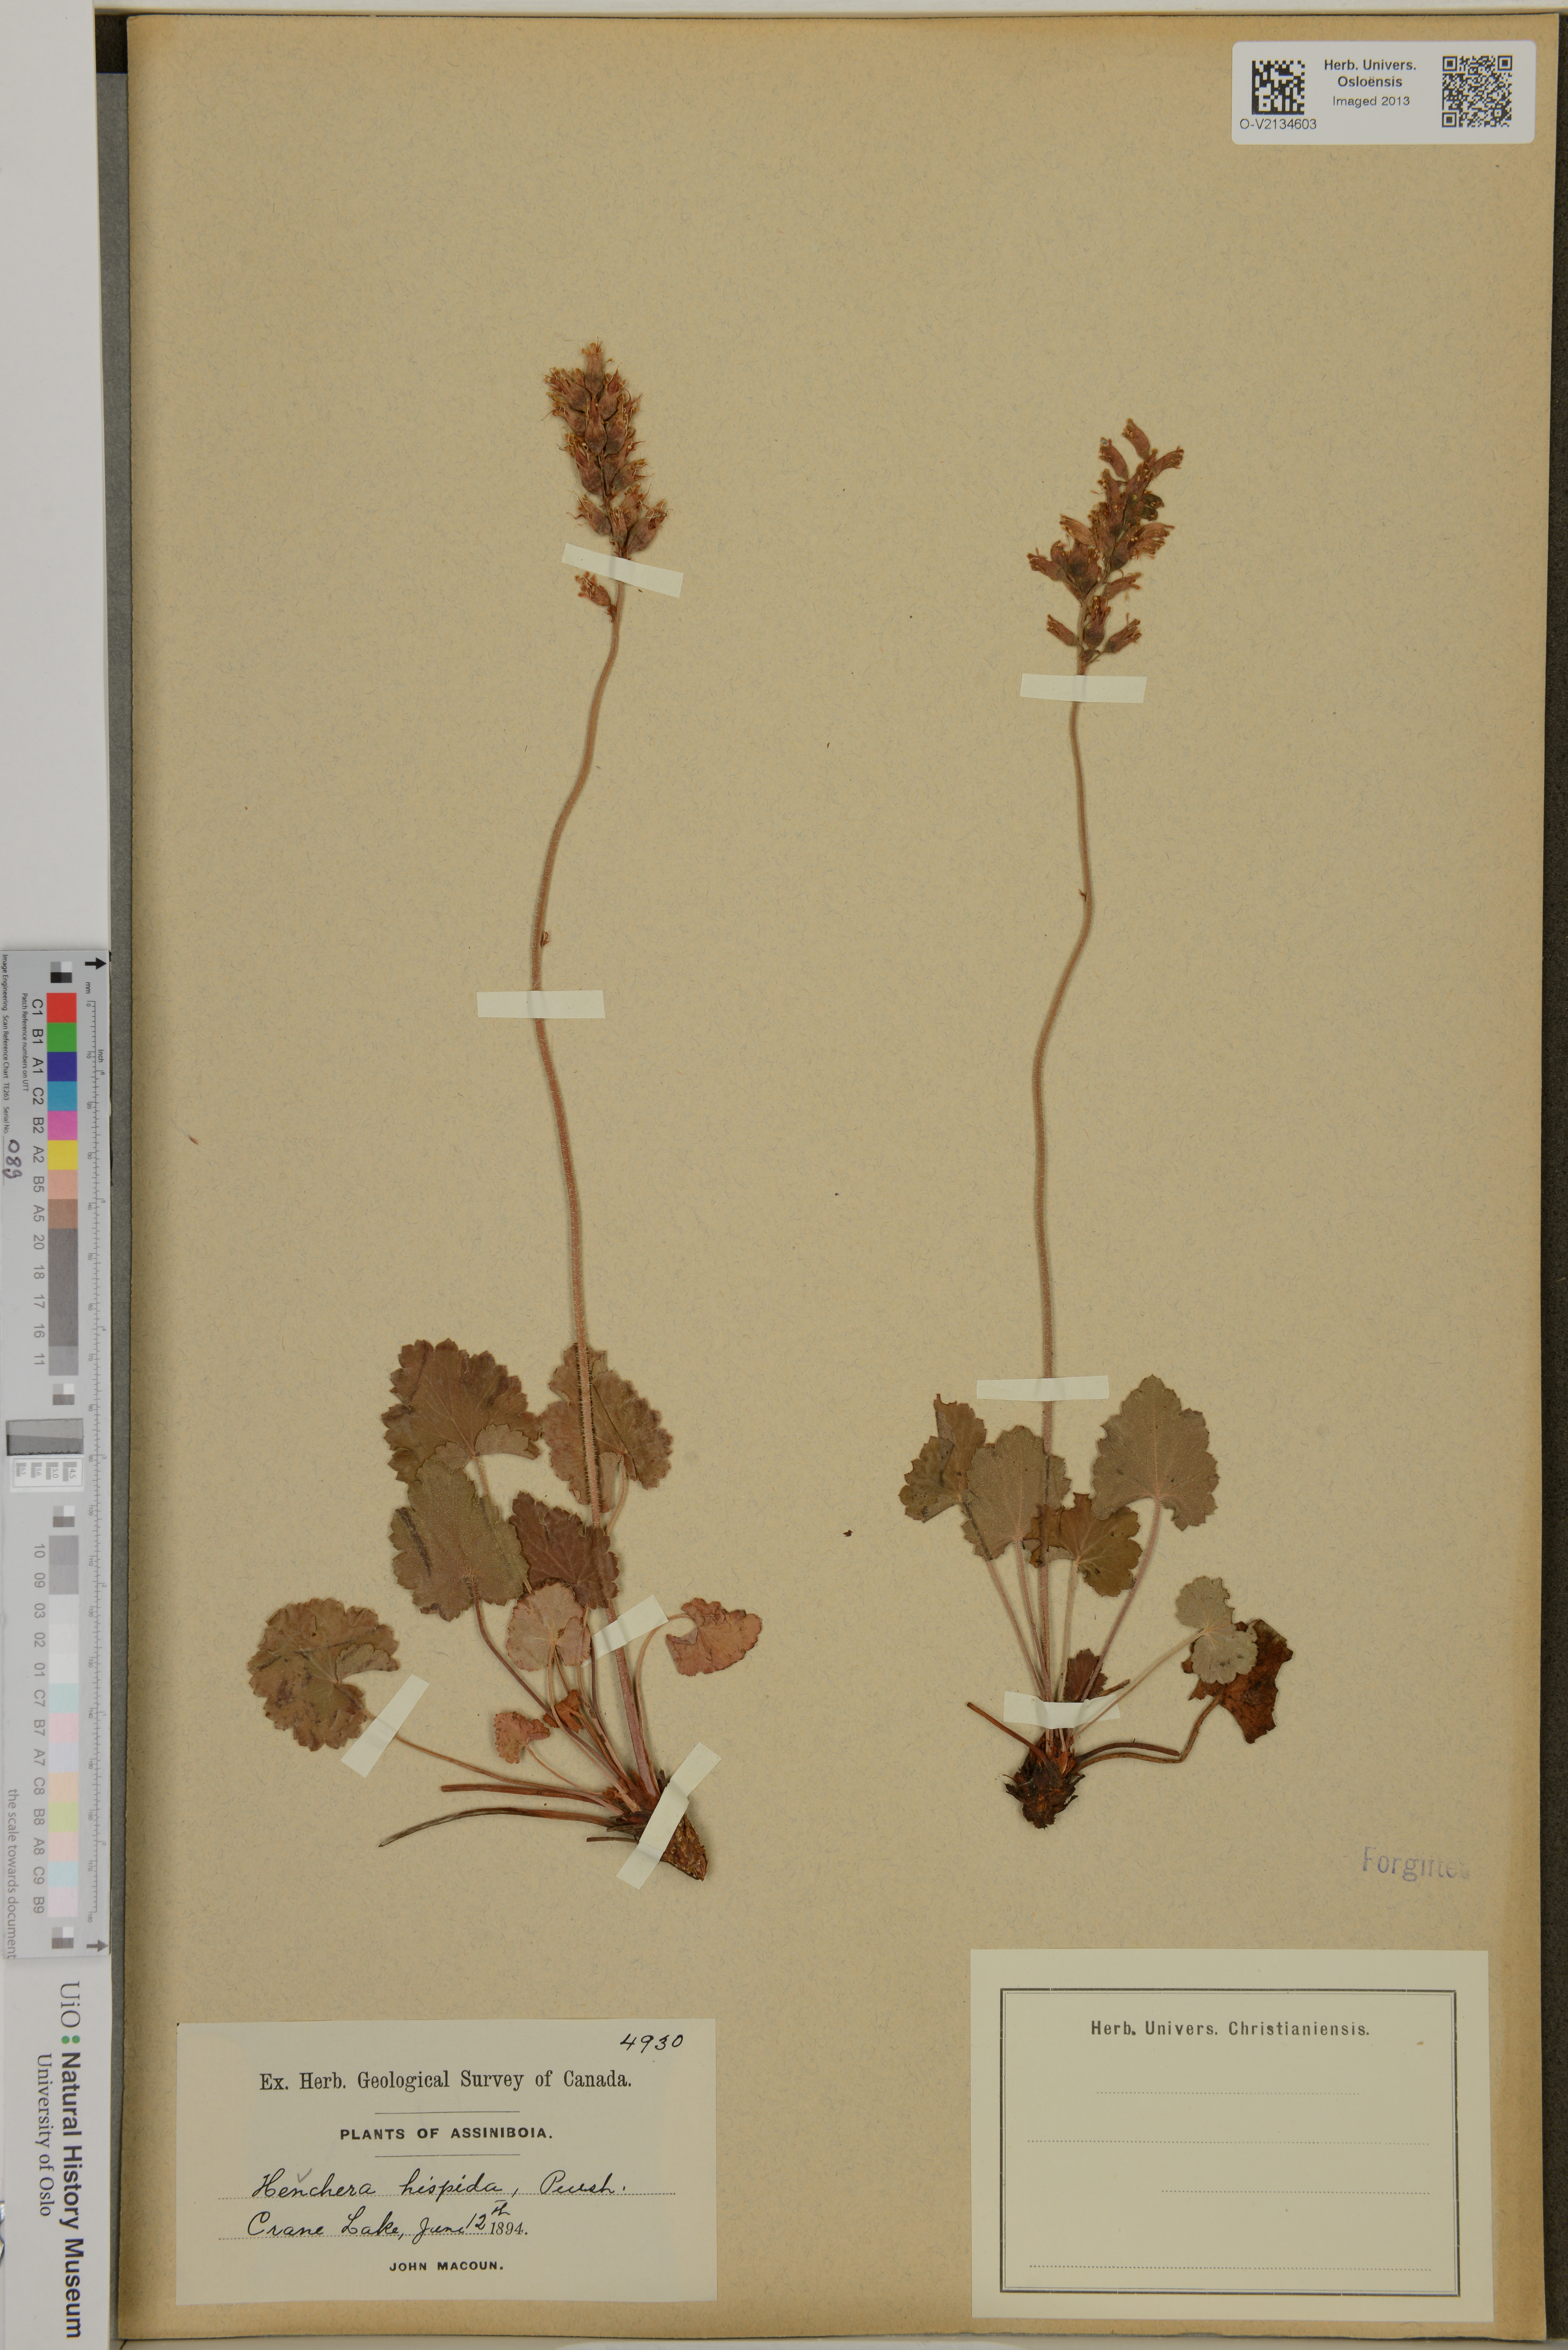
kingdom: Plantae
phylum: Tracheophyta
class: Magnoliopsida
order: Saxifragales
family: Saxifragaceae
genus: Heuchera
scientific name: Heuchera
